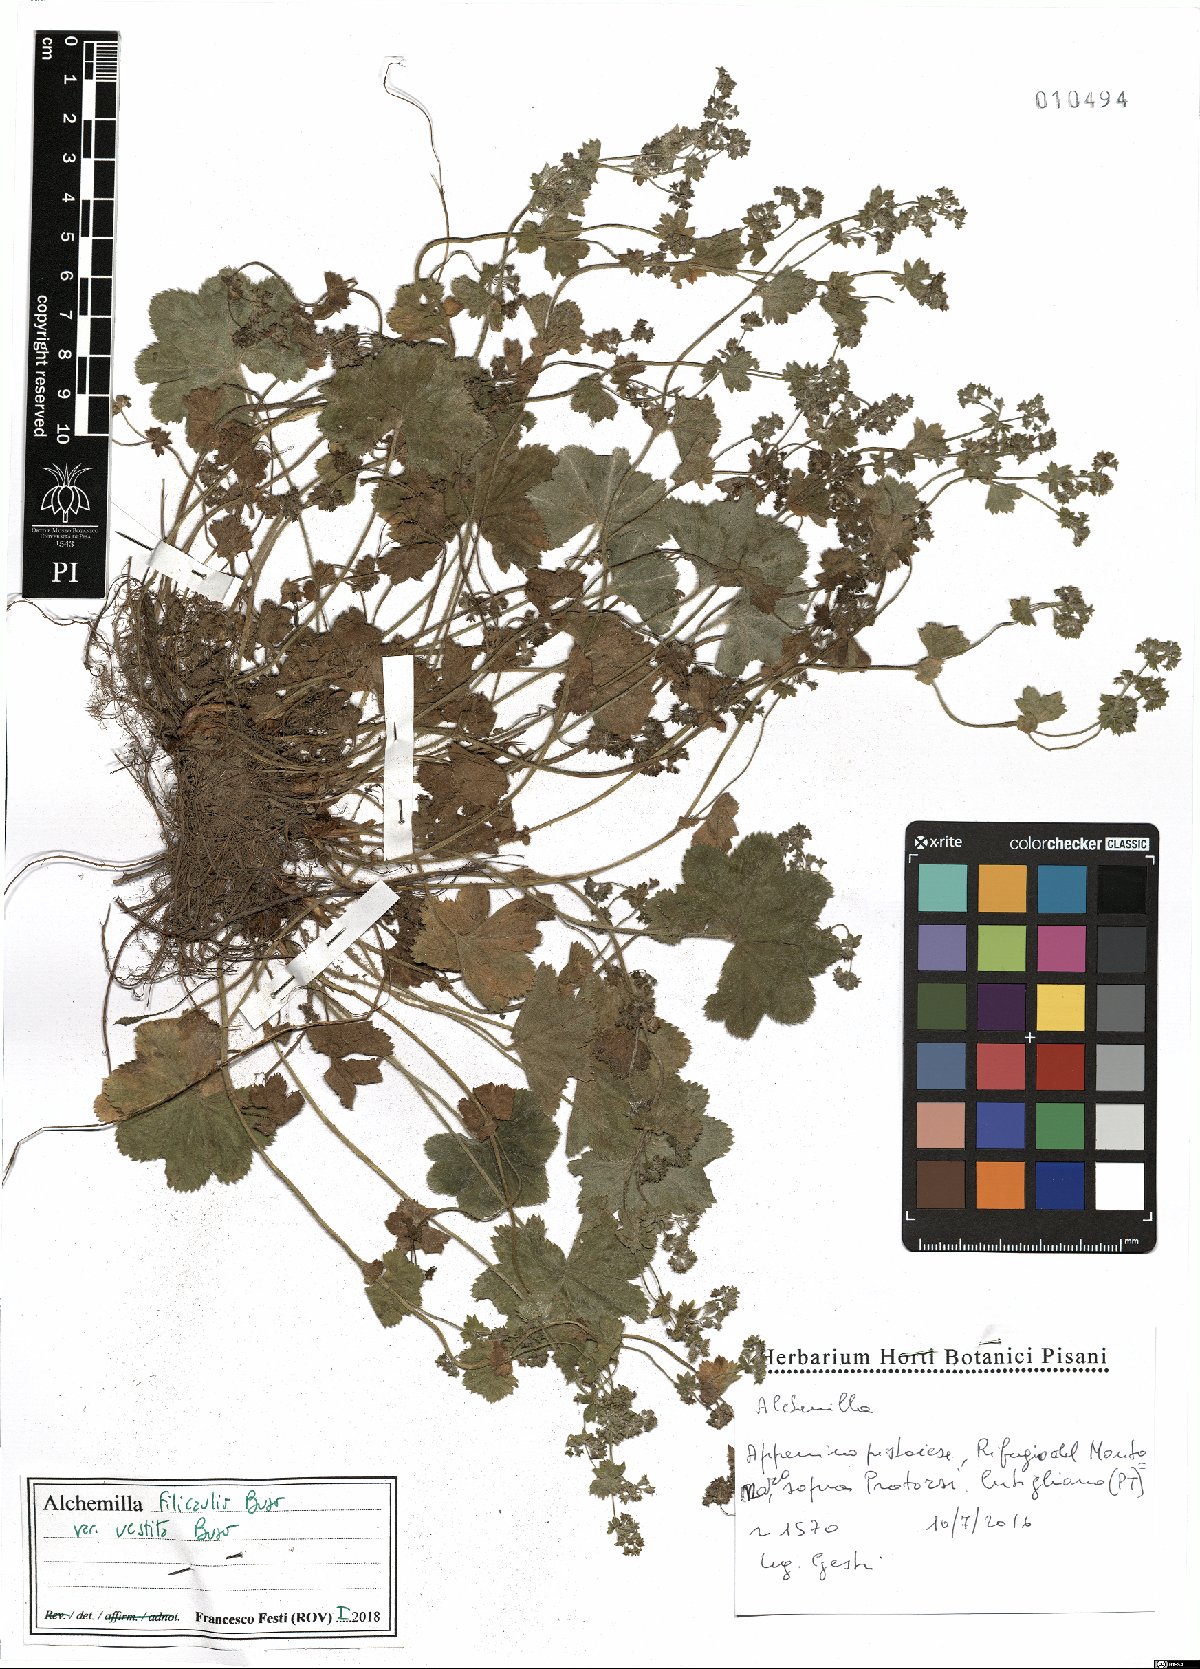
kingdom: Plantae
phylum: Tracheophyta
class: Magnoliopsida
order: Rosales
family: Rosaceae
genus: Alchemilla
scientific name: Alchemilla filicaulis
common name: Hairy lady's-mantle
